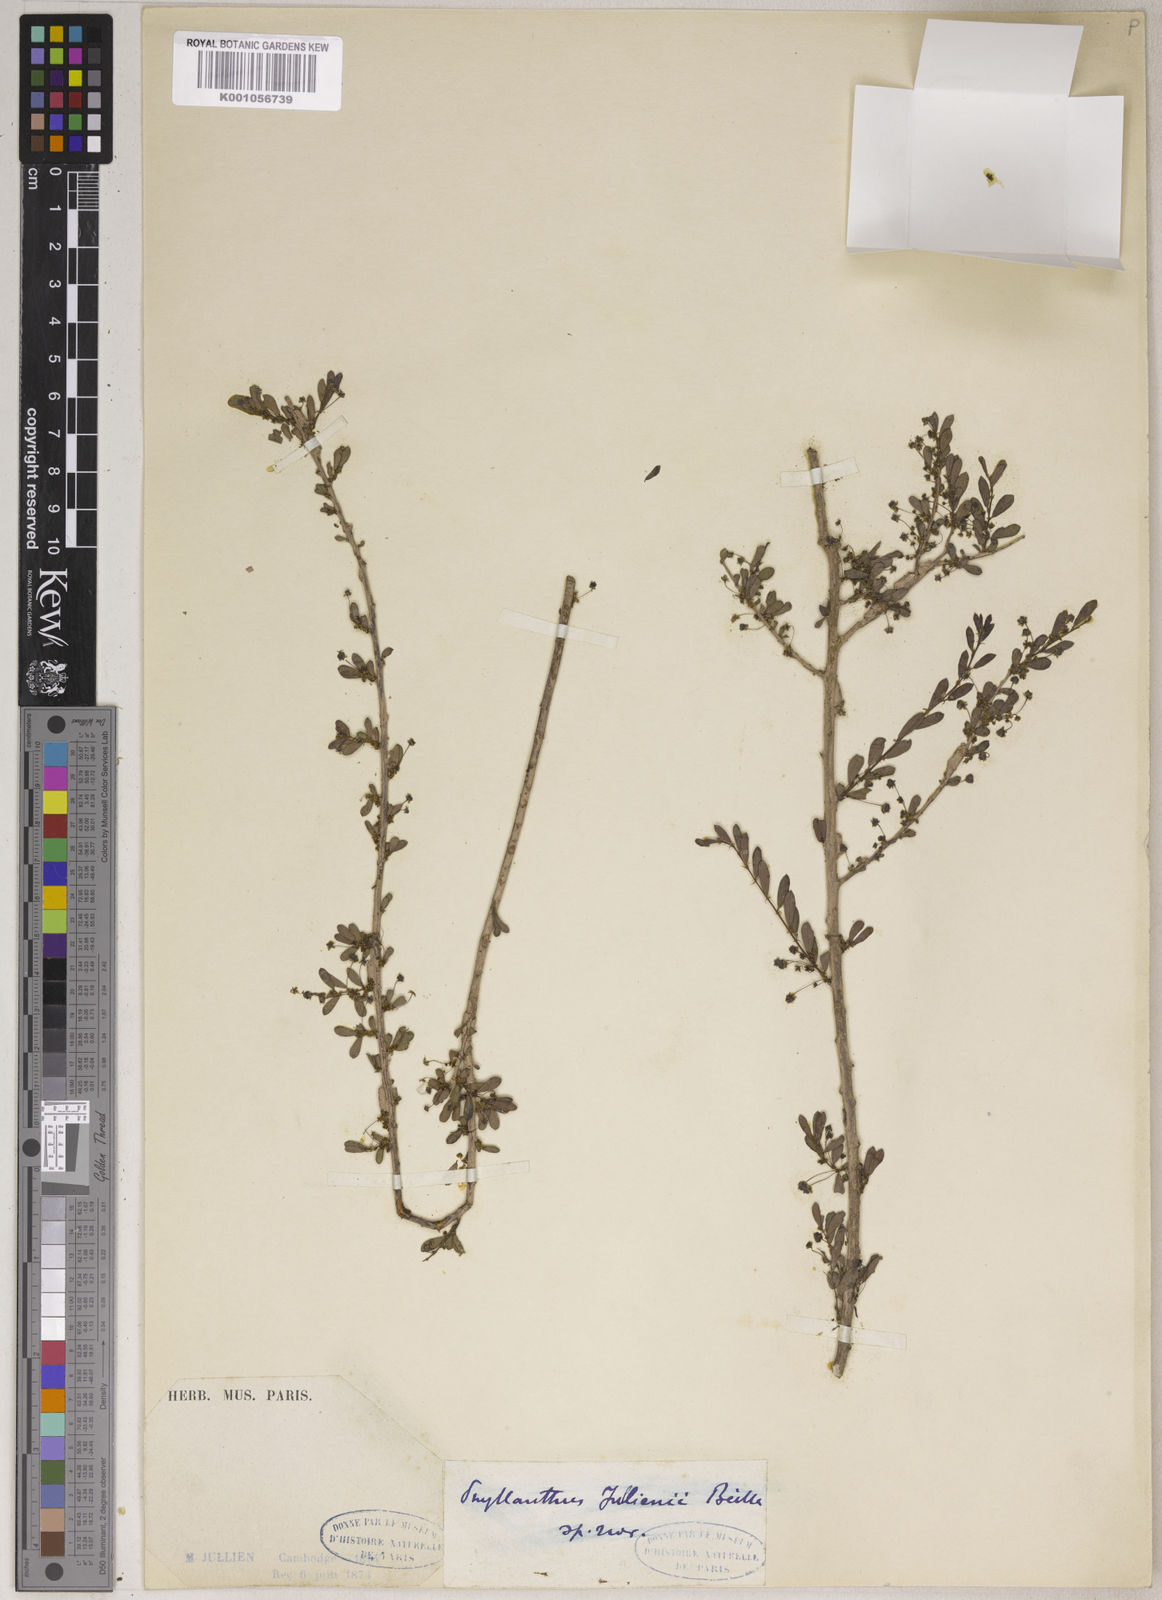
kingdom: Plantae
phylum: Tracheophyta
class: Magnoliopsida
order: Malpighiales
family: Phyllanthaceae
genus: Flueggea
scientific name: Flueggea jullienii
